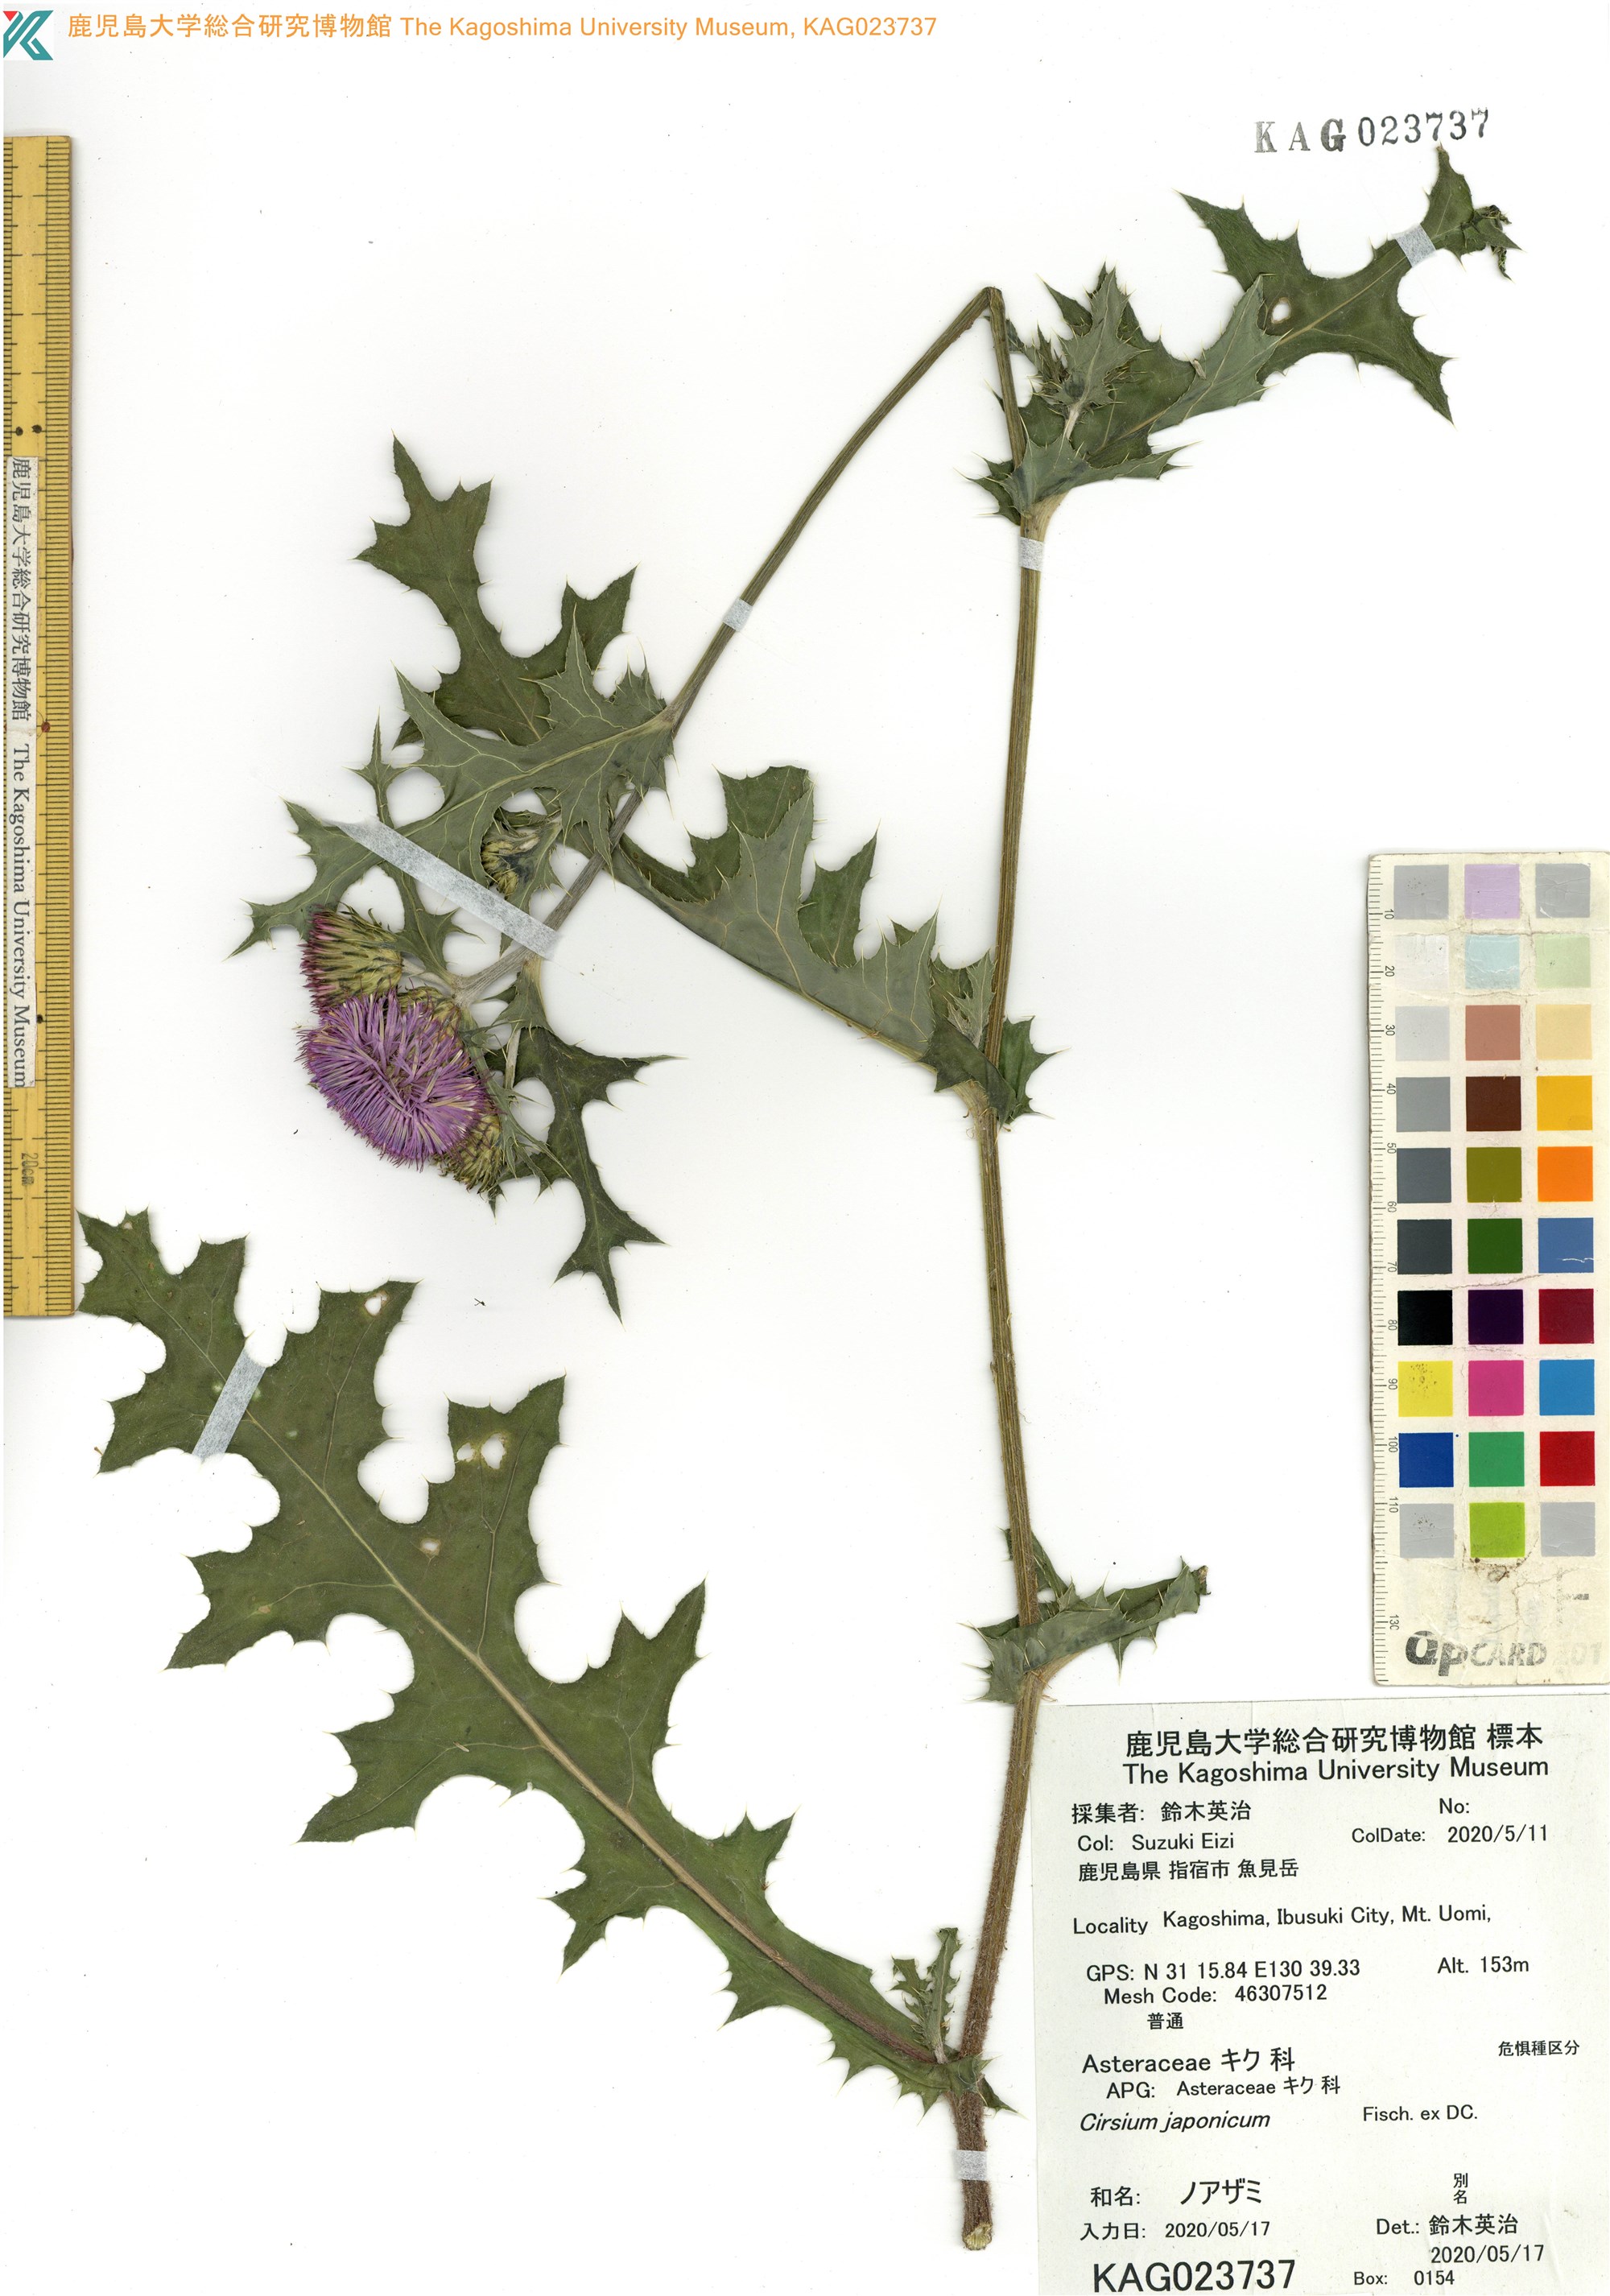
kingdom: Plantae
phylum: Tracheophyta
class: Magnoliopsida
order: Asterales
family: Asteraceae
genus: Cirsium
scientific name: Cirsium japonicum
